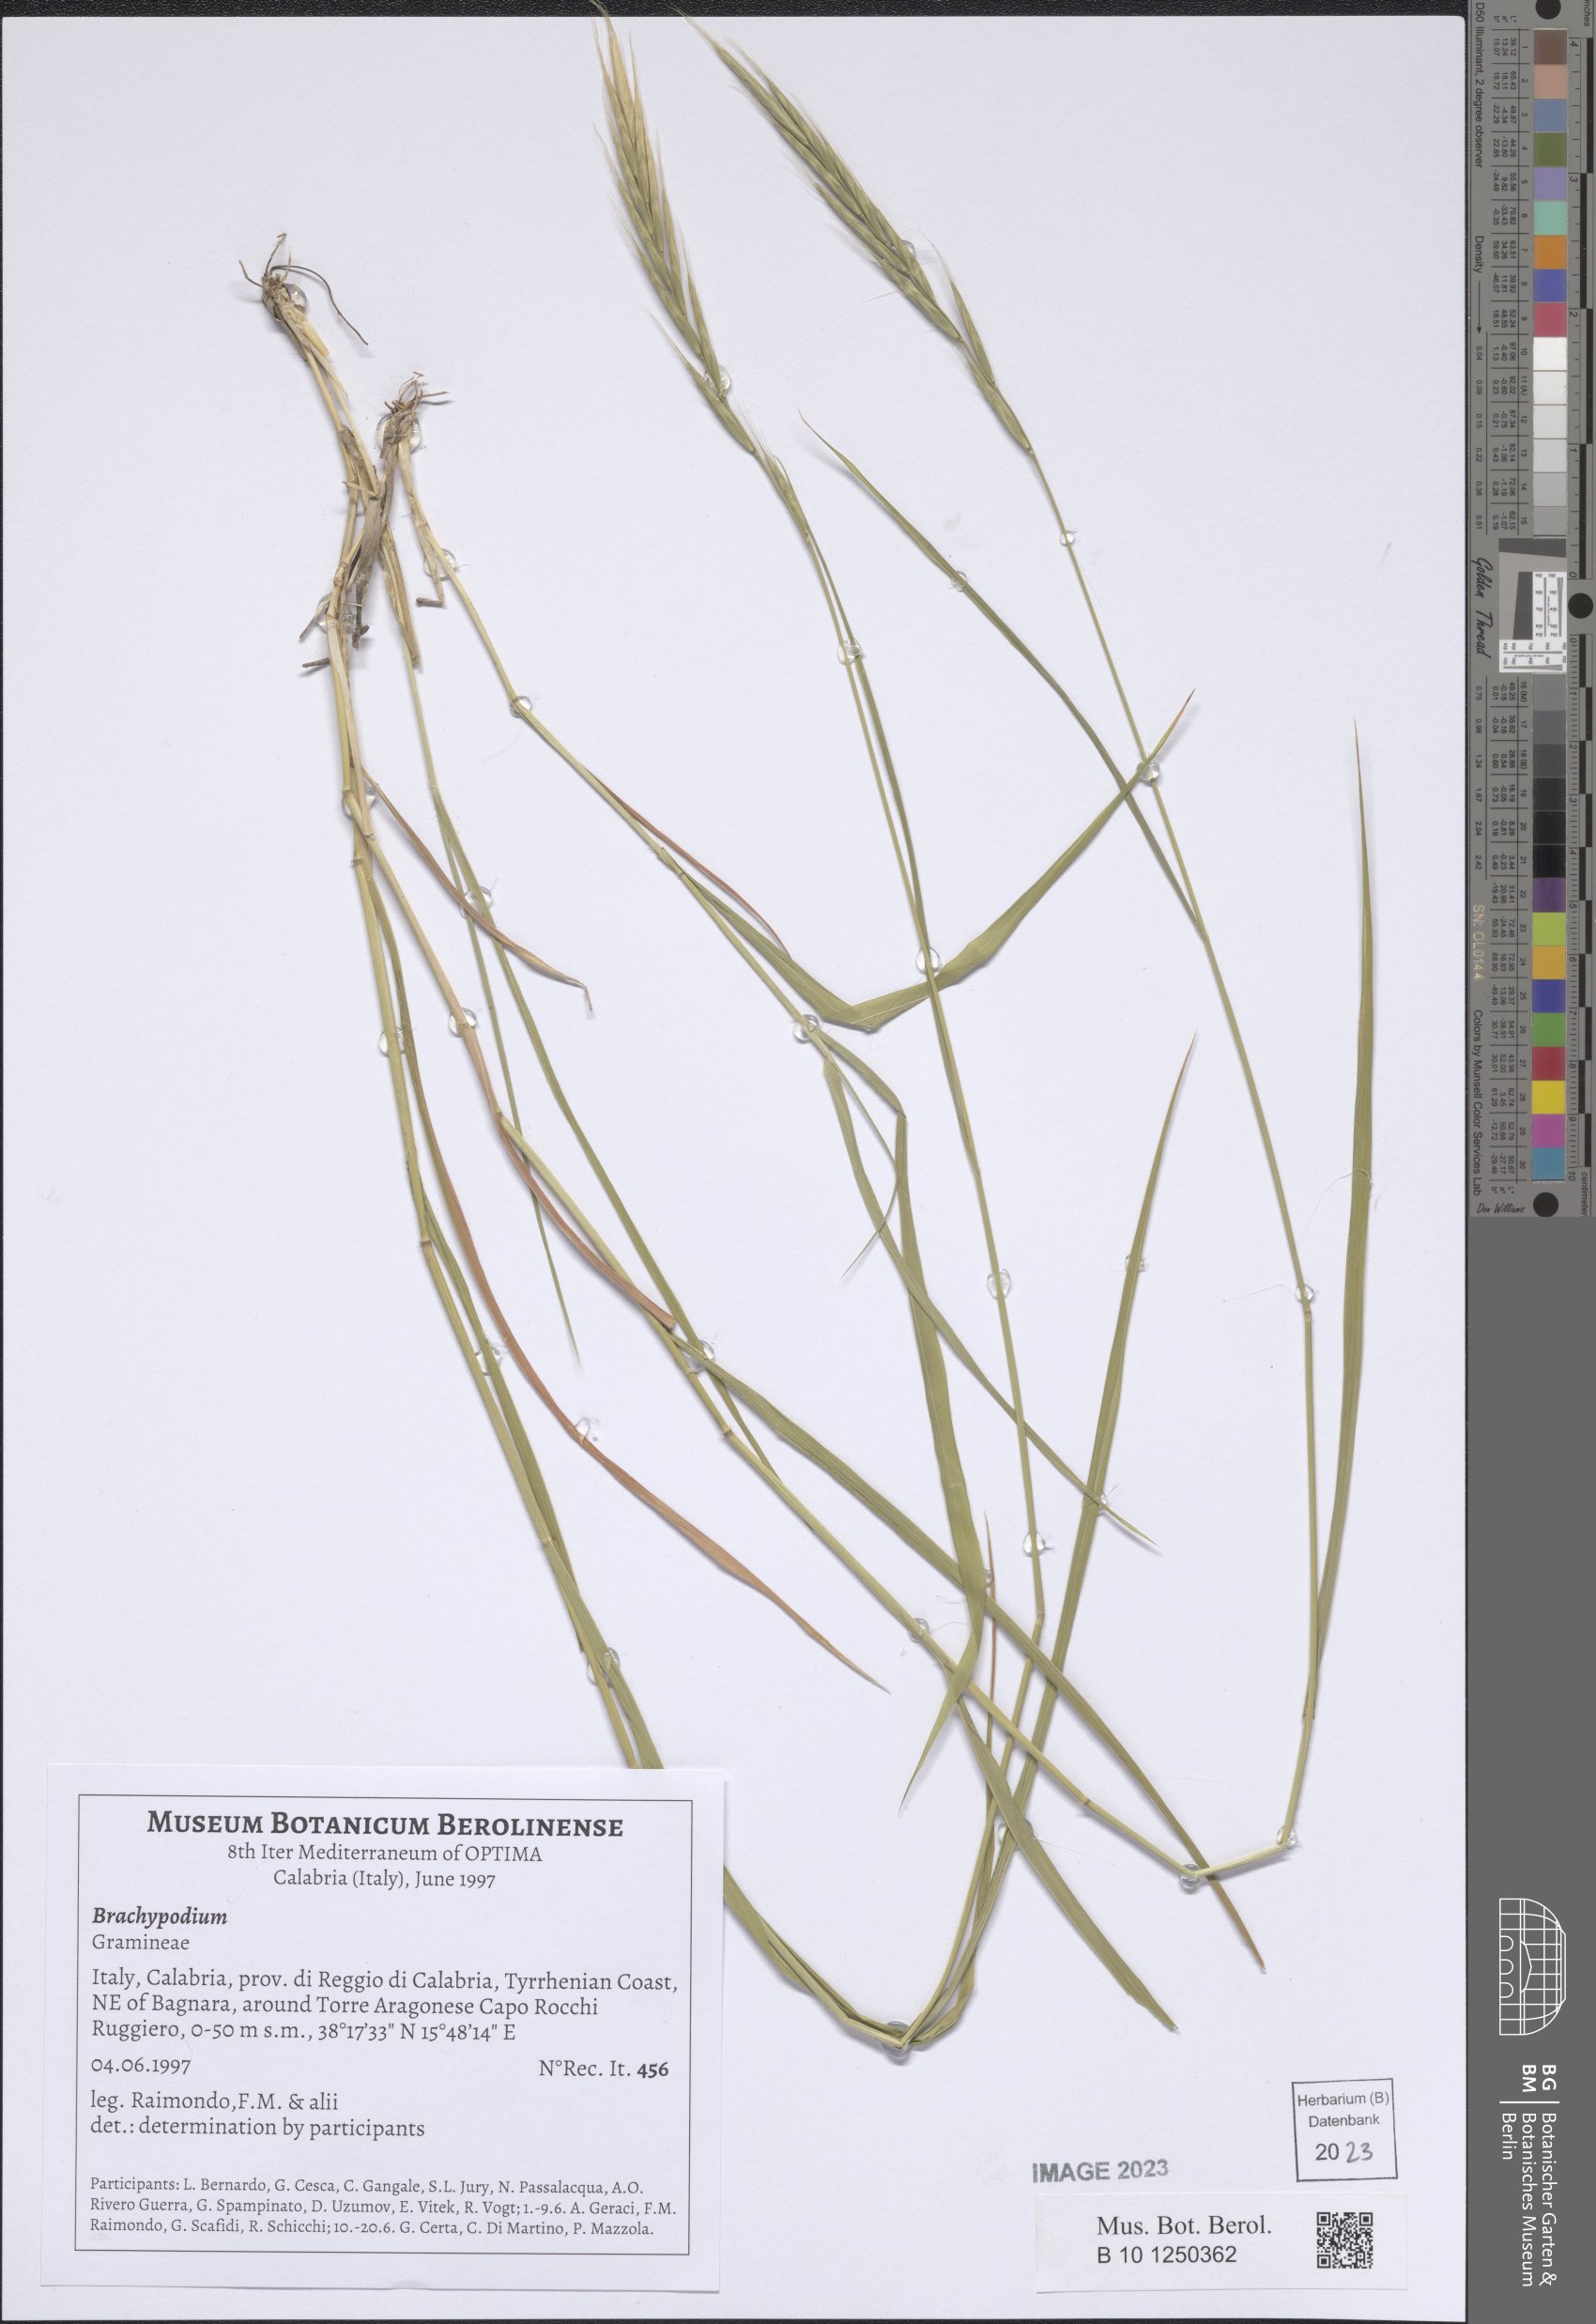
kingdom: Plantae
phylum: Tracheophyta
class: Liliopsida
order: Poales
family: Poaceae
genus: Brachypodium
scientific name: Brachypodium
